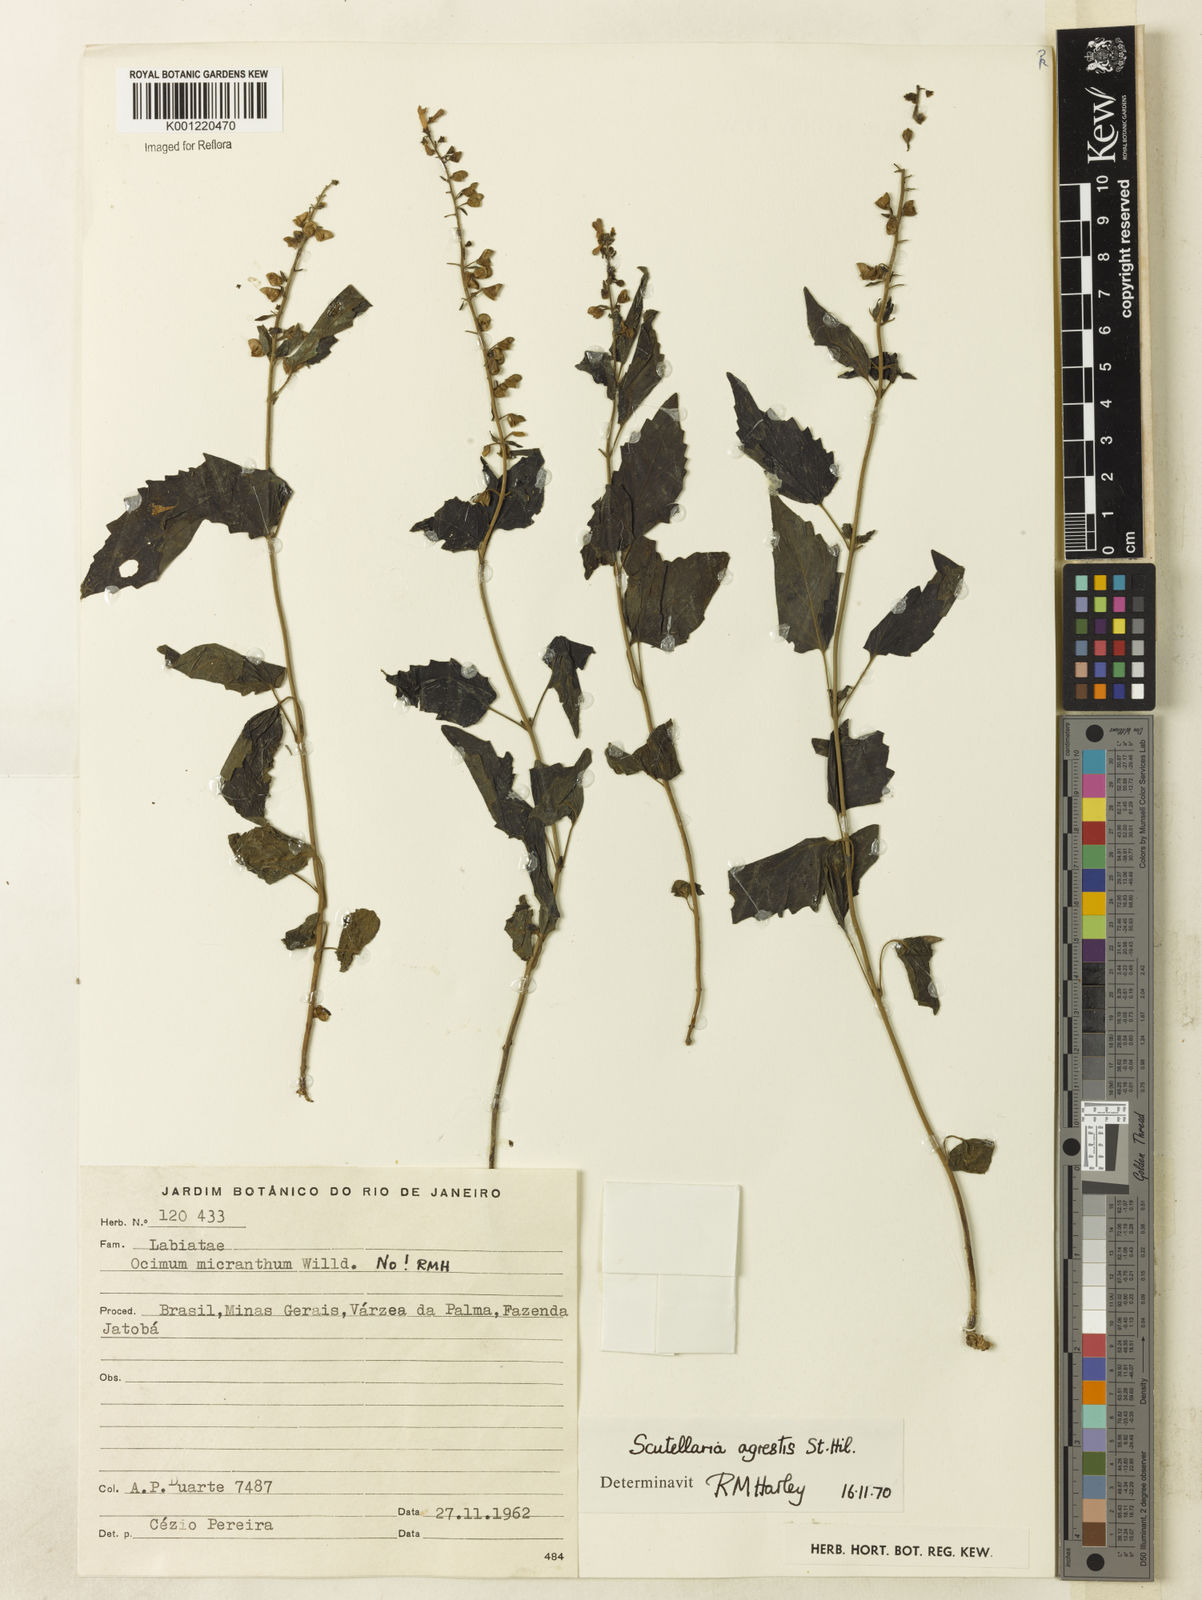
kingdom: Plantae
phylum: Tracheophyta
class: Magnoliopsida
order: Lamiales
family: Lamiaceae
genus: Scutellaria
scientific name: Scutellaria uliginosa
